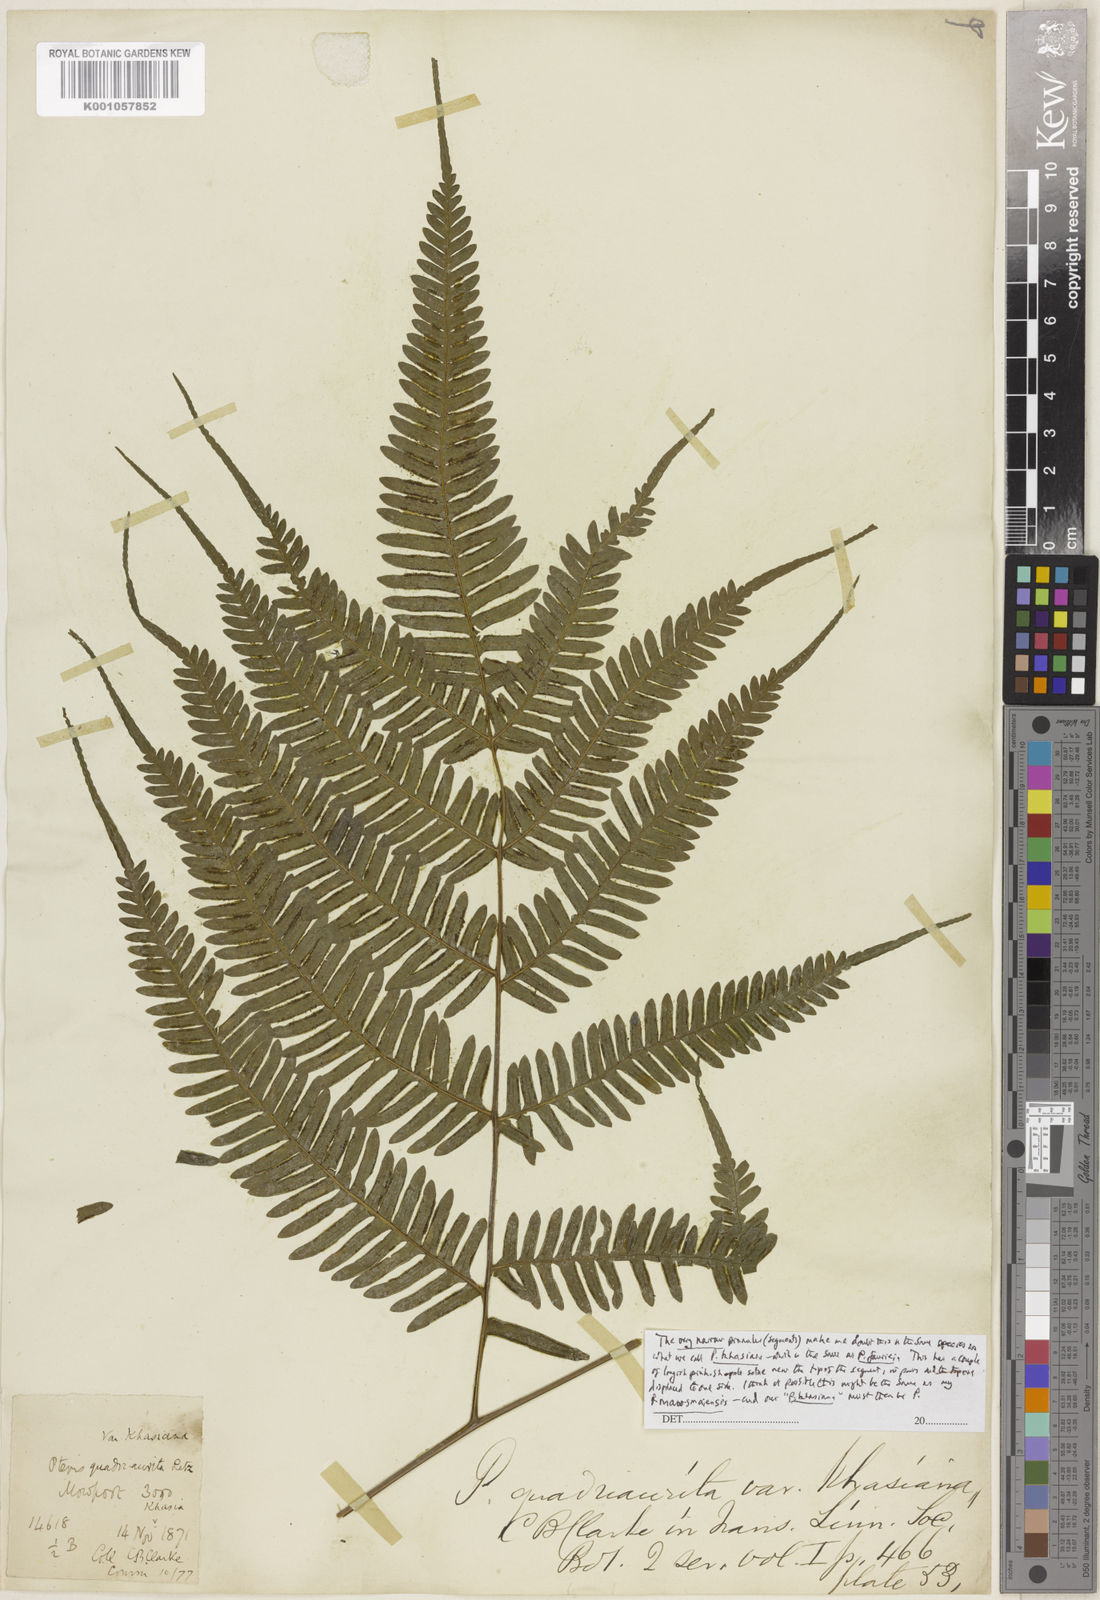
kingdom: Plantae
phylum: Tracheophyta
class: Polypodiopsida
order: Polypodiales
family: Pteridaceae
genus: Pteris
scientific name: Pteris khasiana
